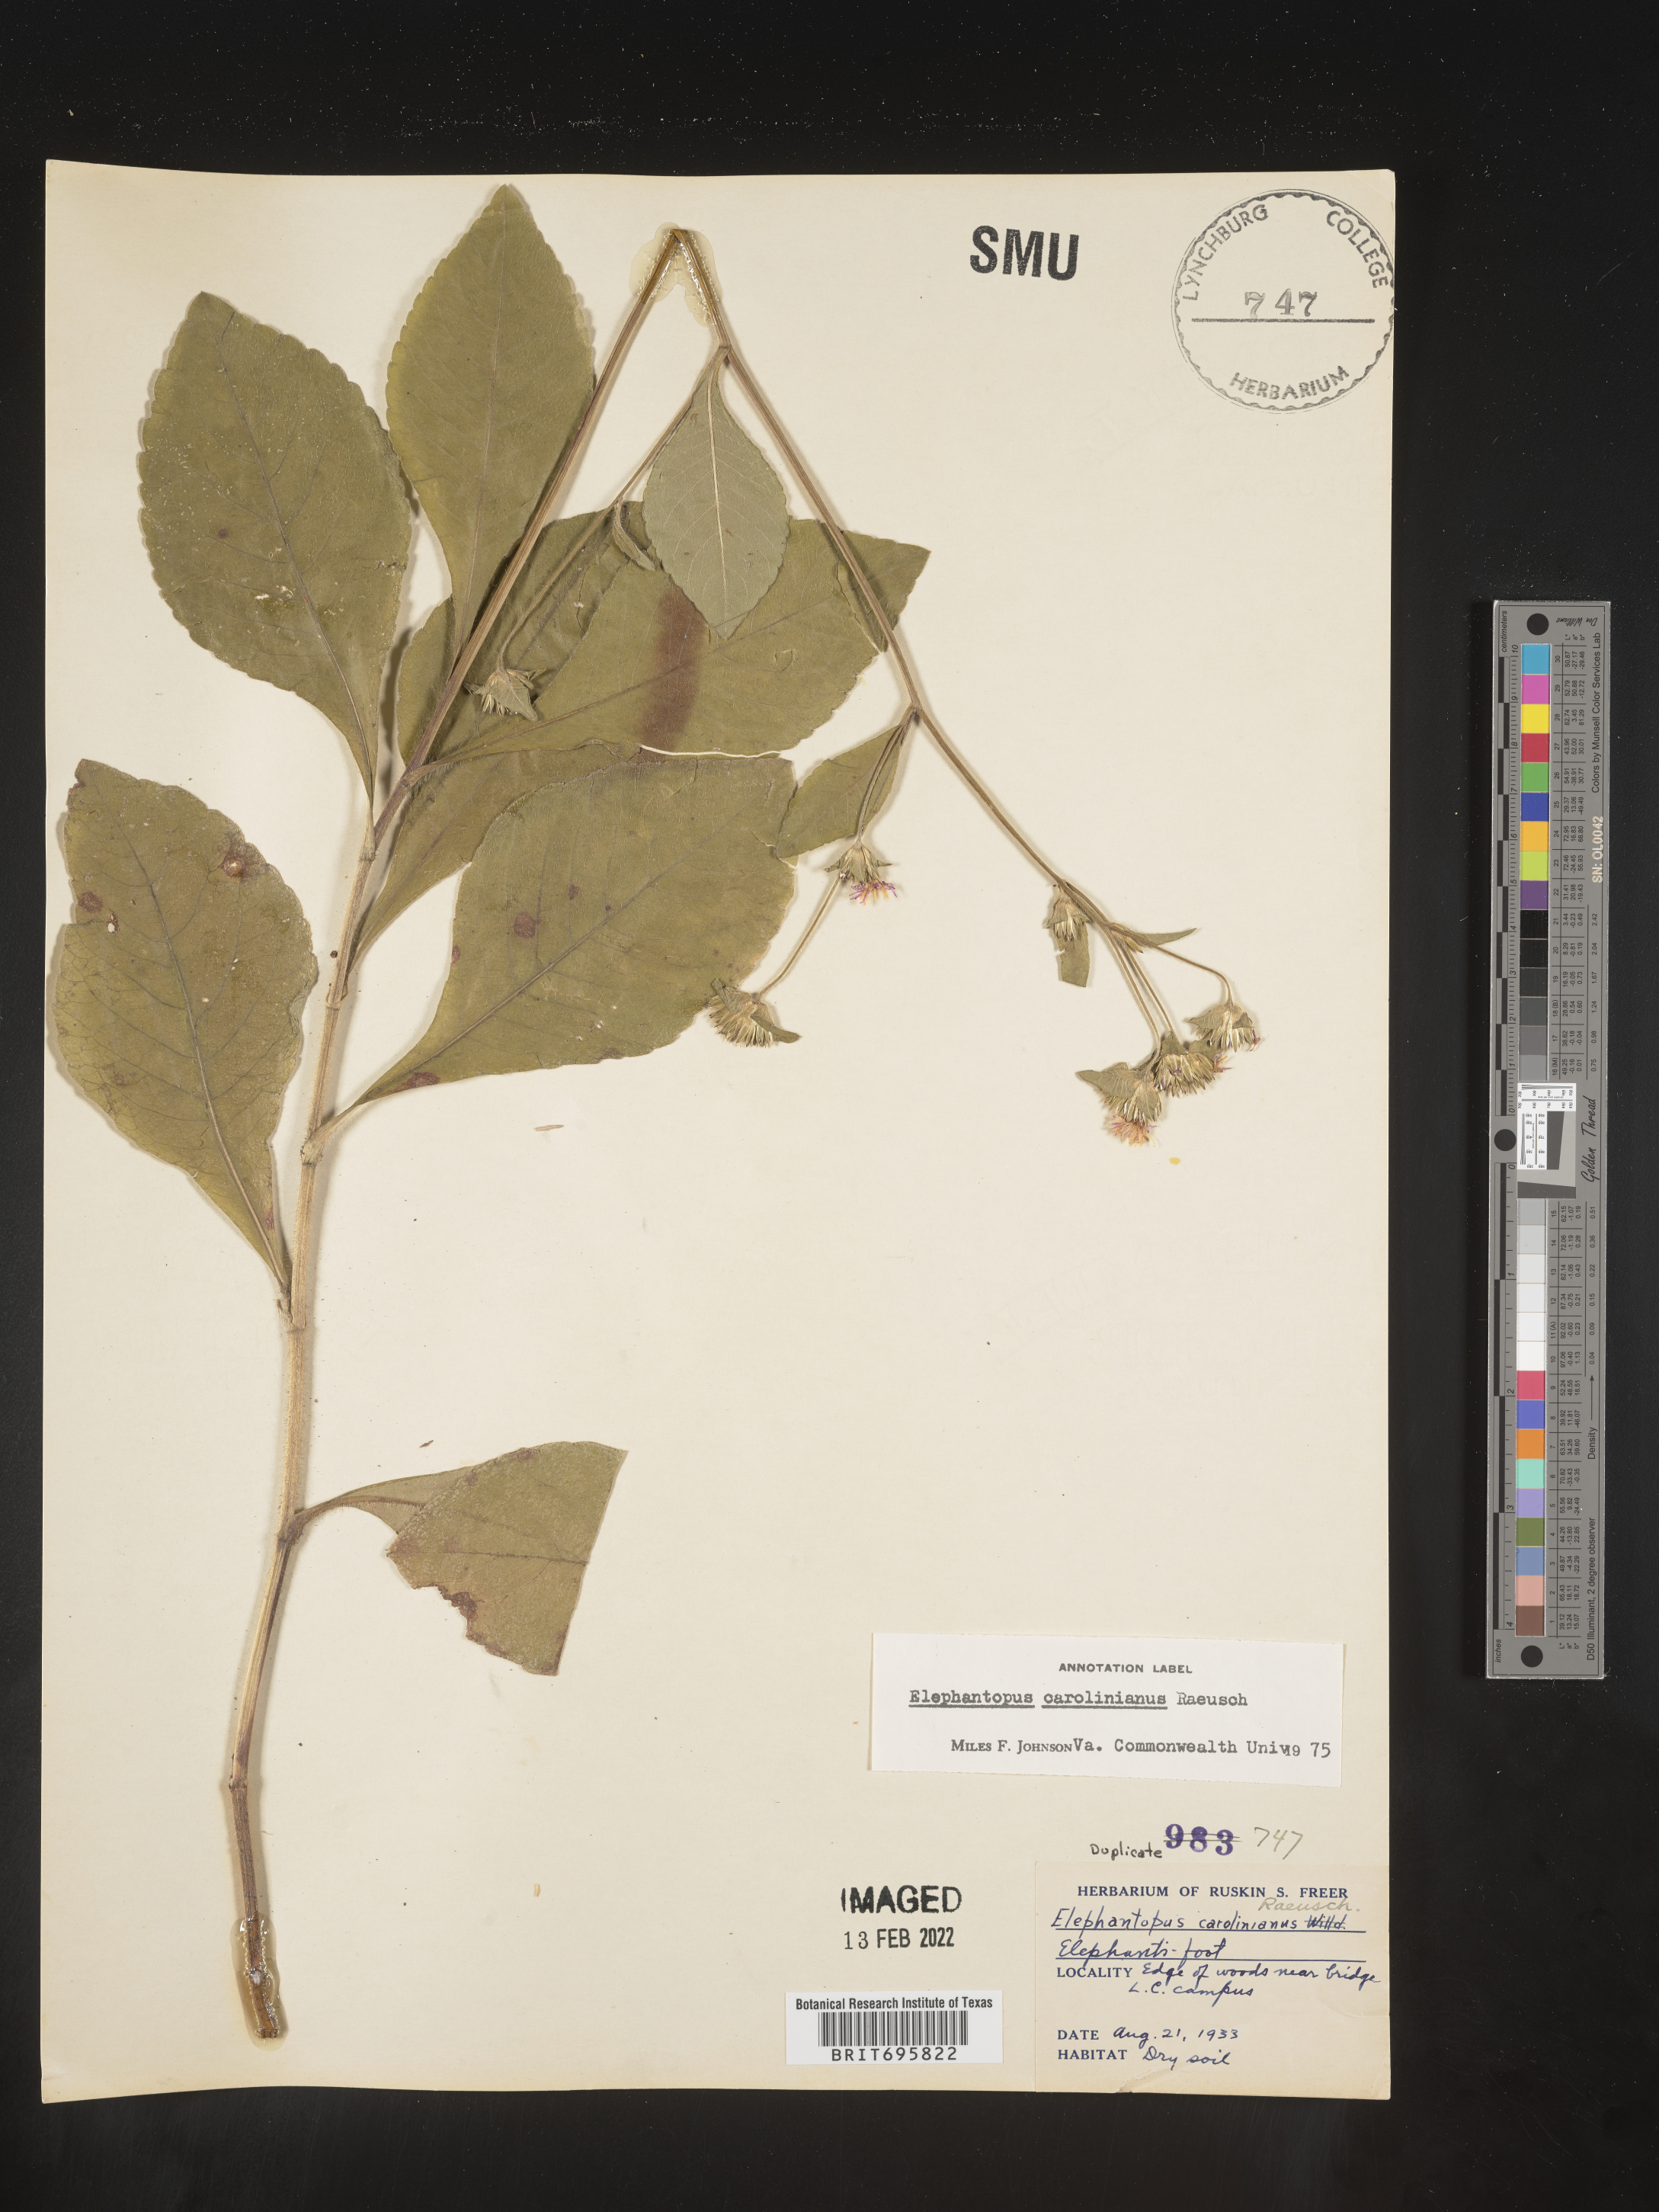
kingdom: Plantae
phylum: Tracheophyta
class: Magnoliopsida
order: Asterales
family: Asteraceae
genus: Elephantopus
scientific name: Elephantopus carolinianus
